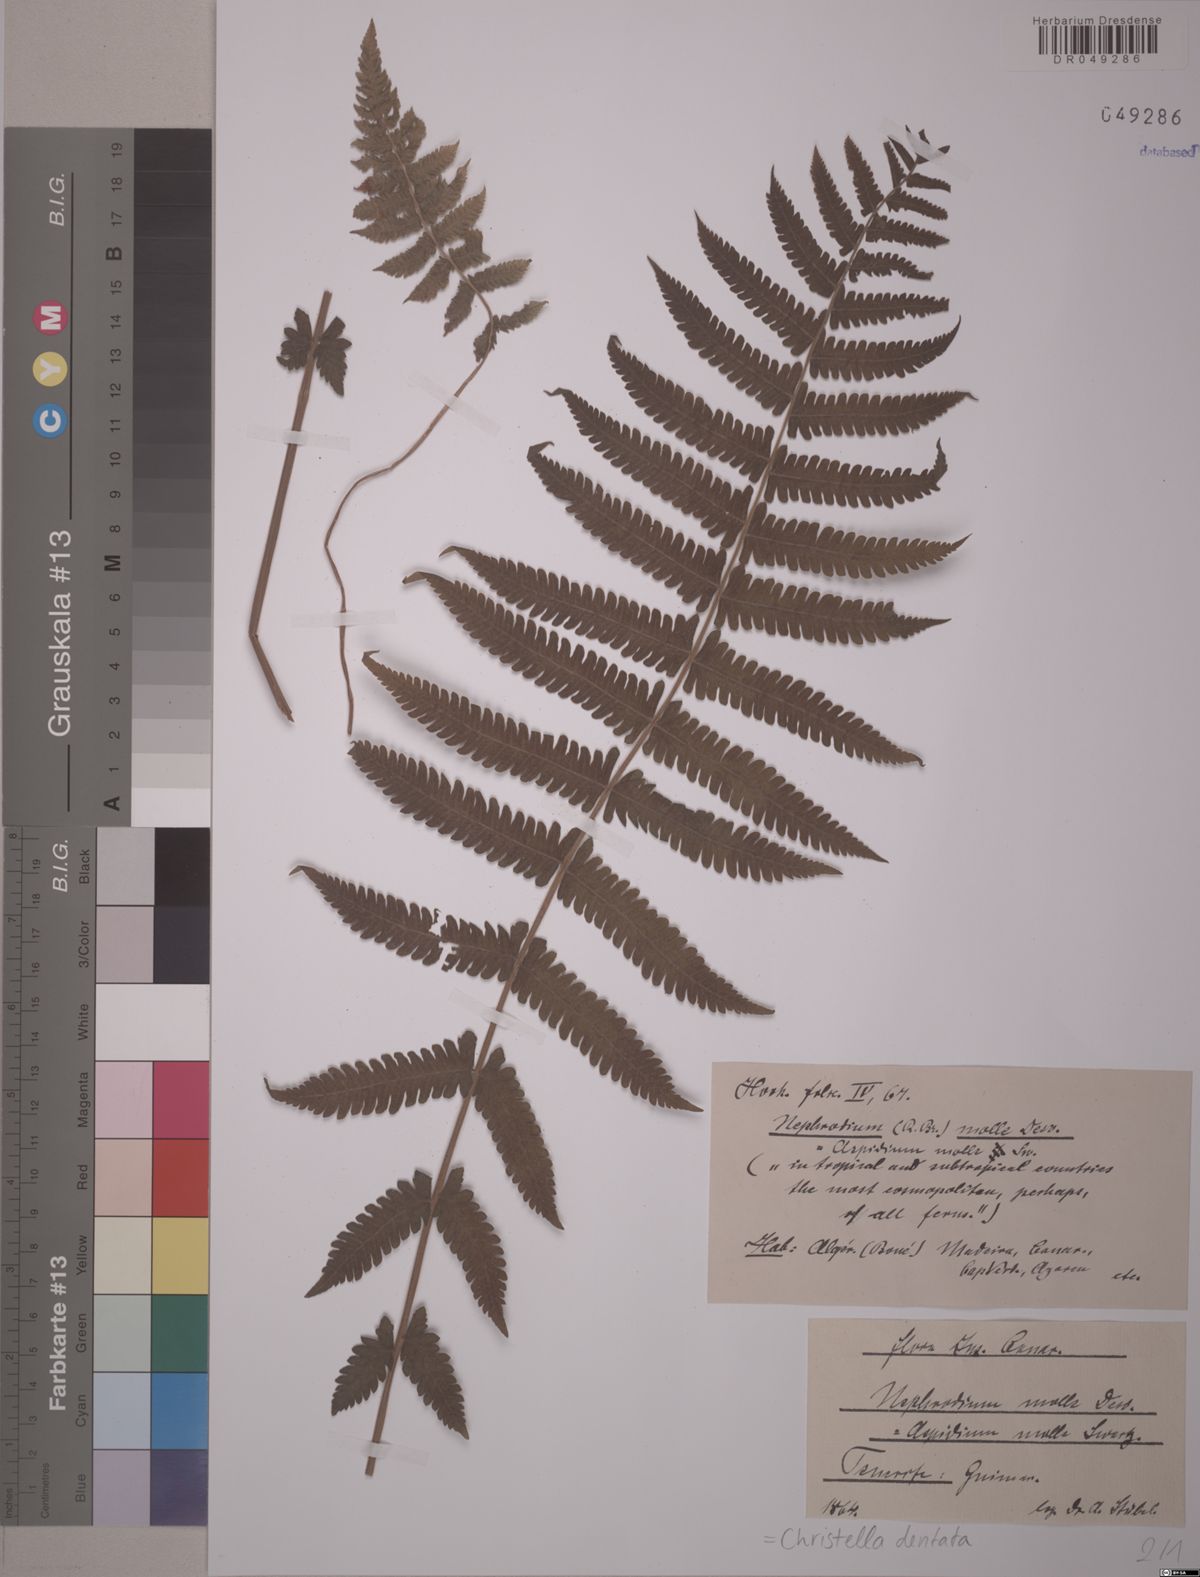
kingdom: Plantae
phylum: Tracheophyta
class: Polypodiopsida
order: Polypodiales
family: Thelypteridaceae
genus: Christella
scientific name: Christella dentata
